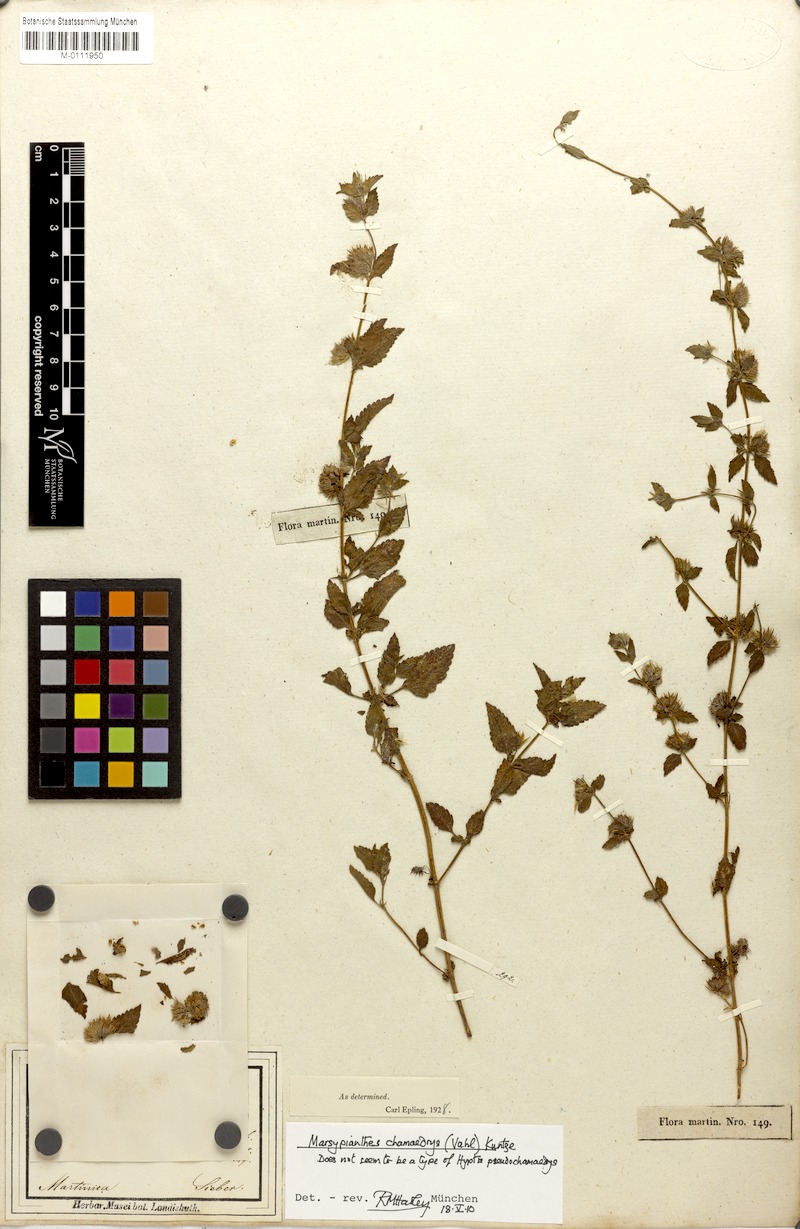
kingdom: Plantae
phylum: Tracheophyta
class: Magnoliopsida
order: Lamiales
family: Lamiaceae
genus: Marsypianthes
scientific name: Marsypianthes chamaedrys
